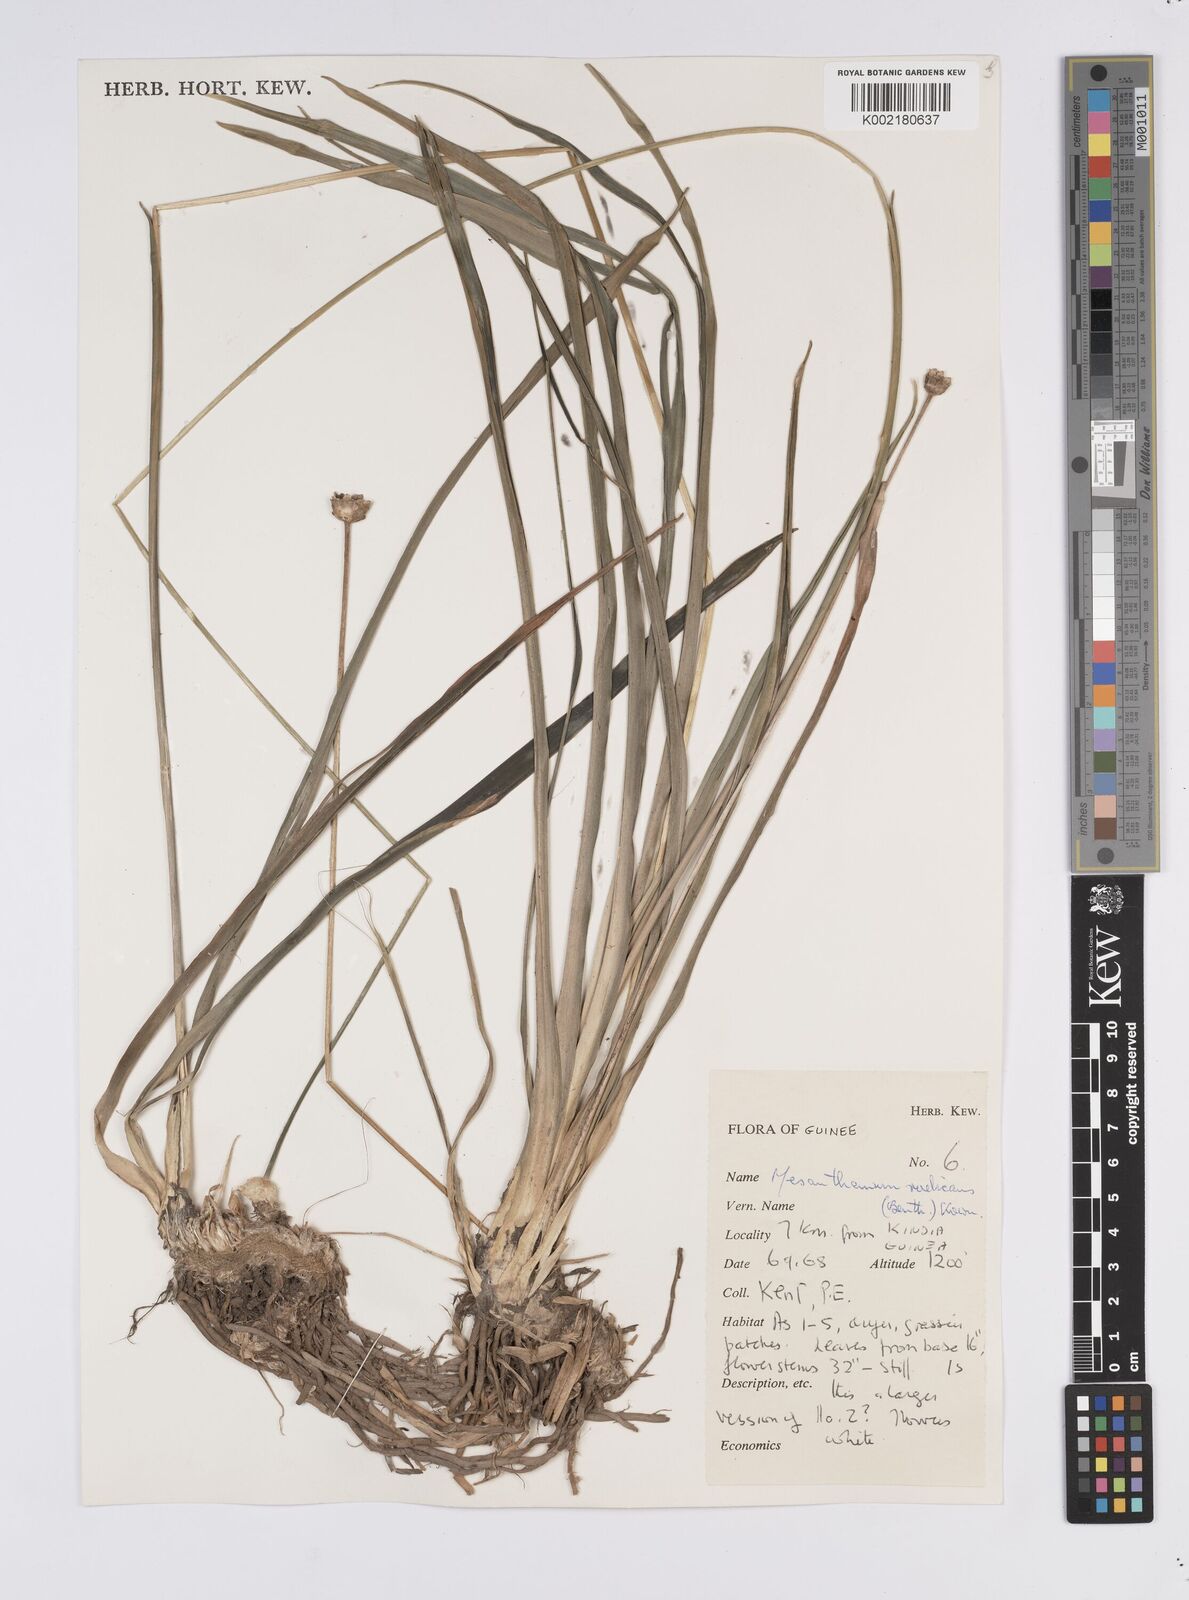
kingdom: Plantae
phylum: Tracheophyta
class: Liliopsida
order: Poales
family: Eriocaulaceae
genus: Mesanthemum
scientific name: Mesanthemum radicans
